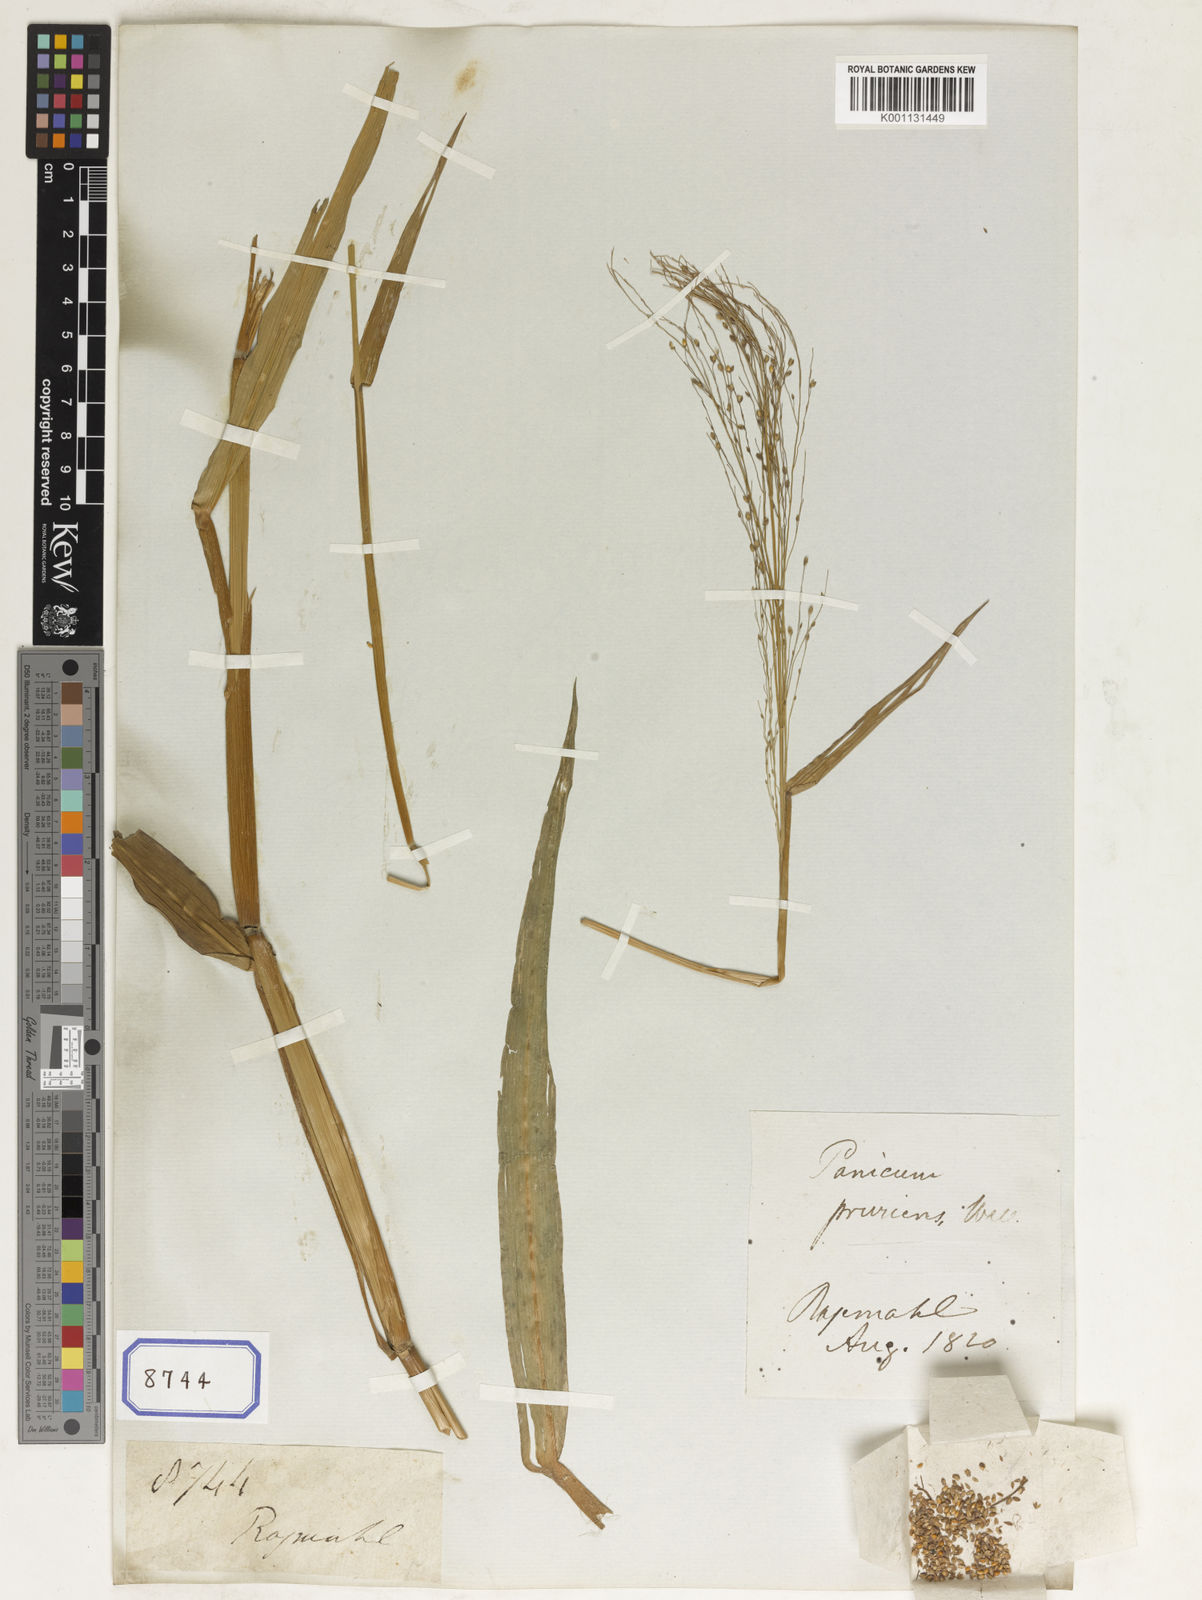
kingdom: Plantae
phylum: Tracheophyta
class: Liliopsida
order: Poales
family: Poaceae
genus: Panicum
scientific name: Panicum
